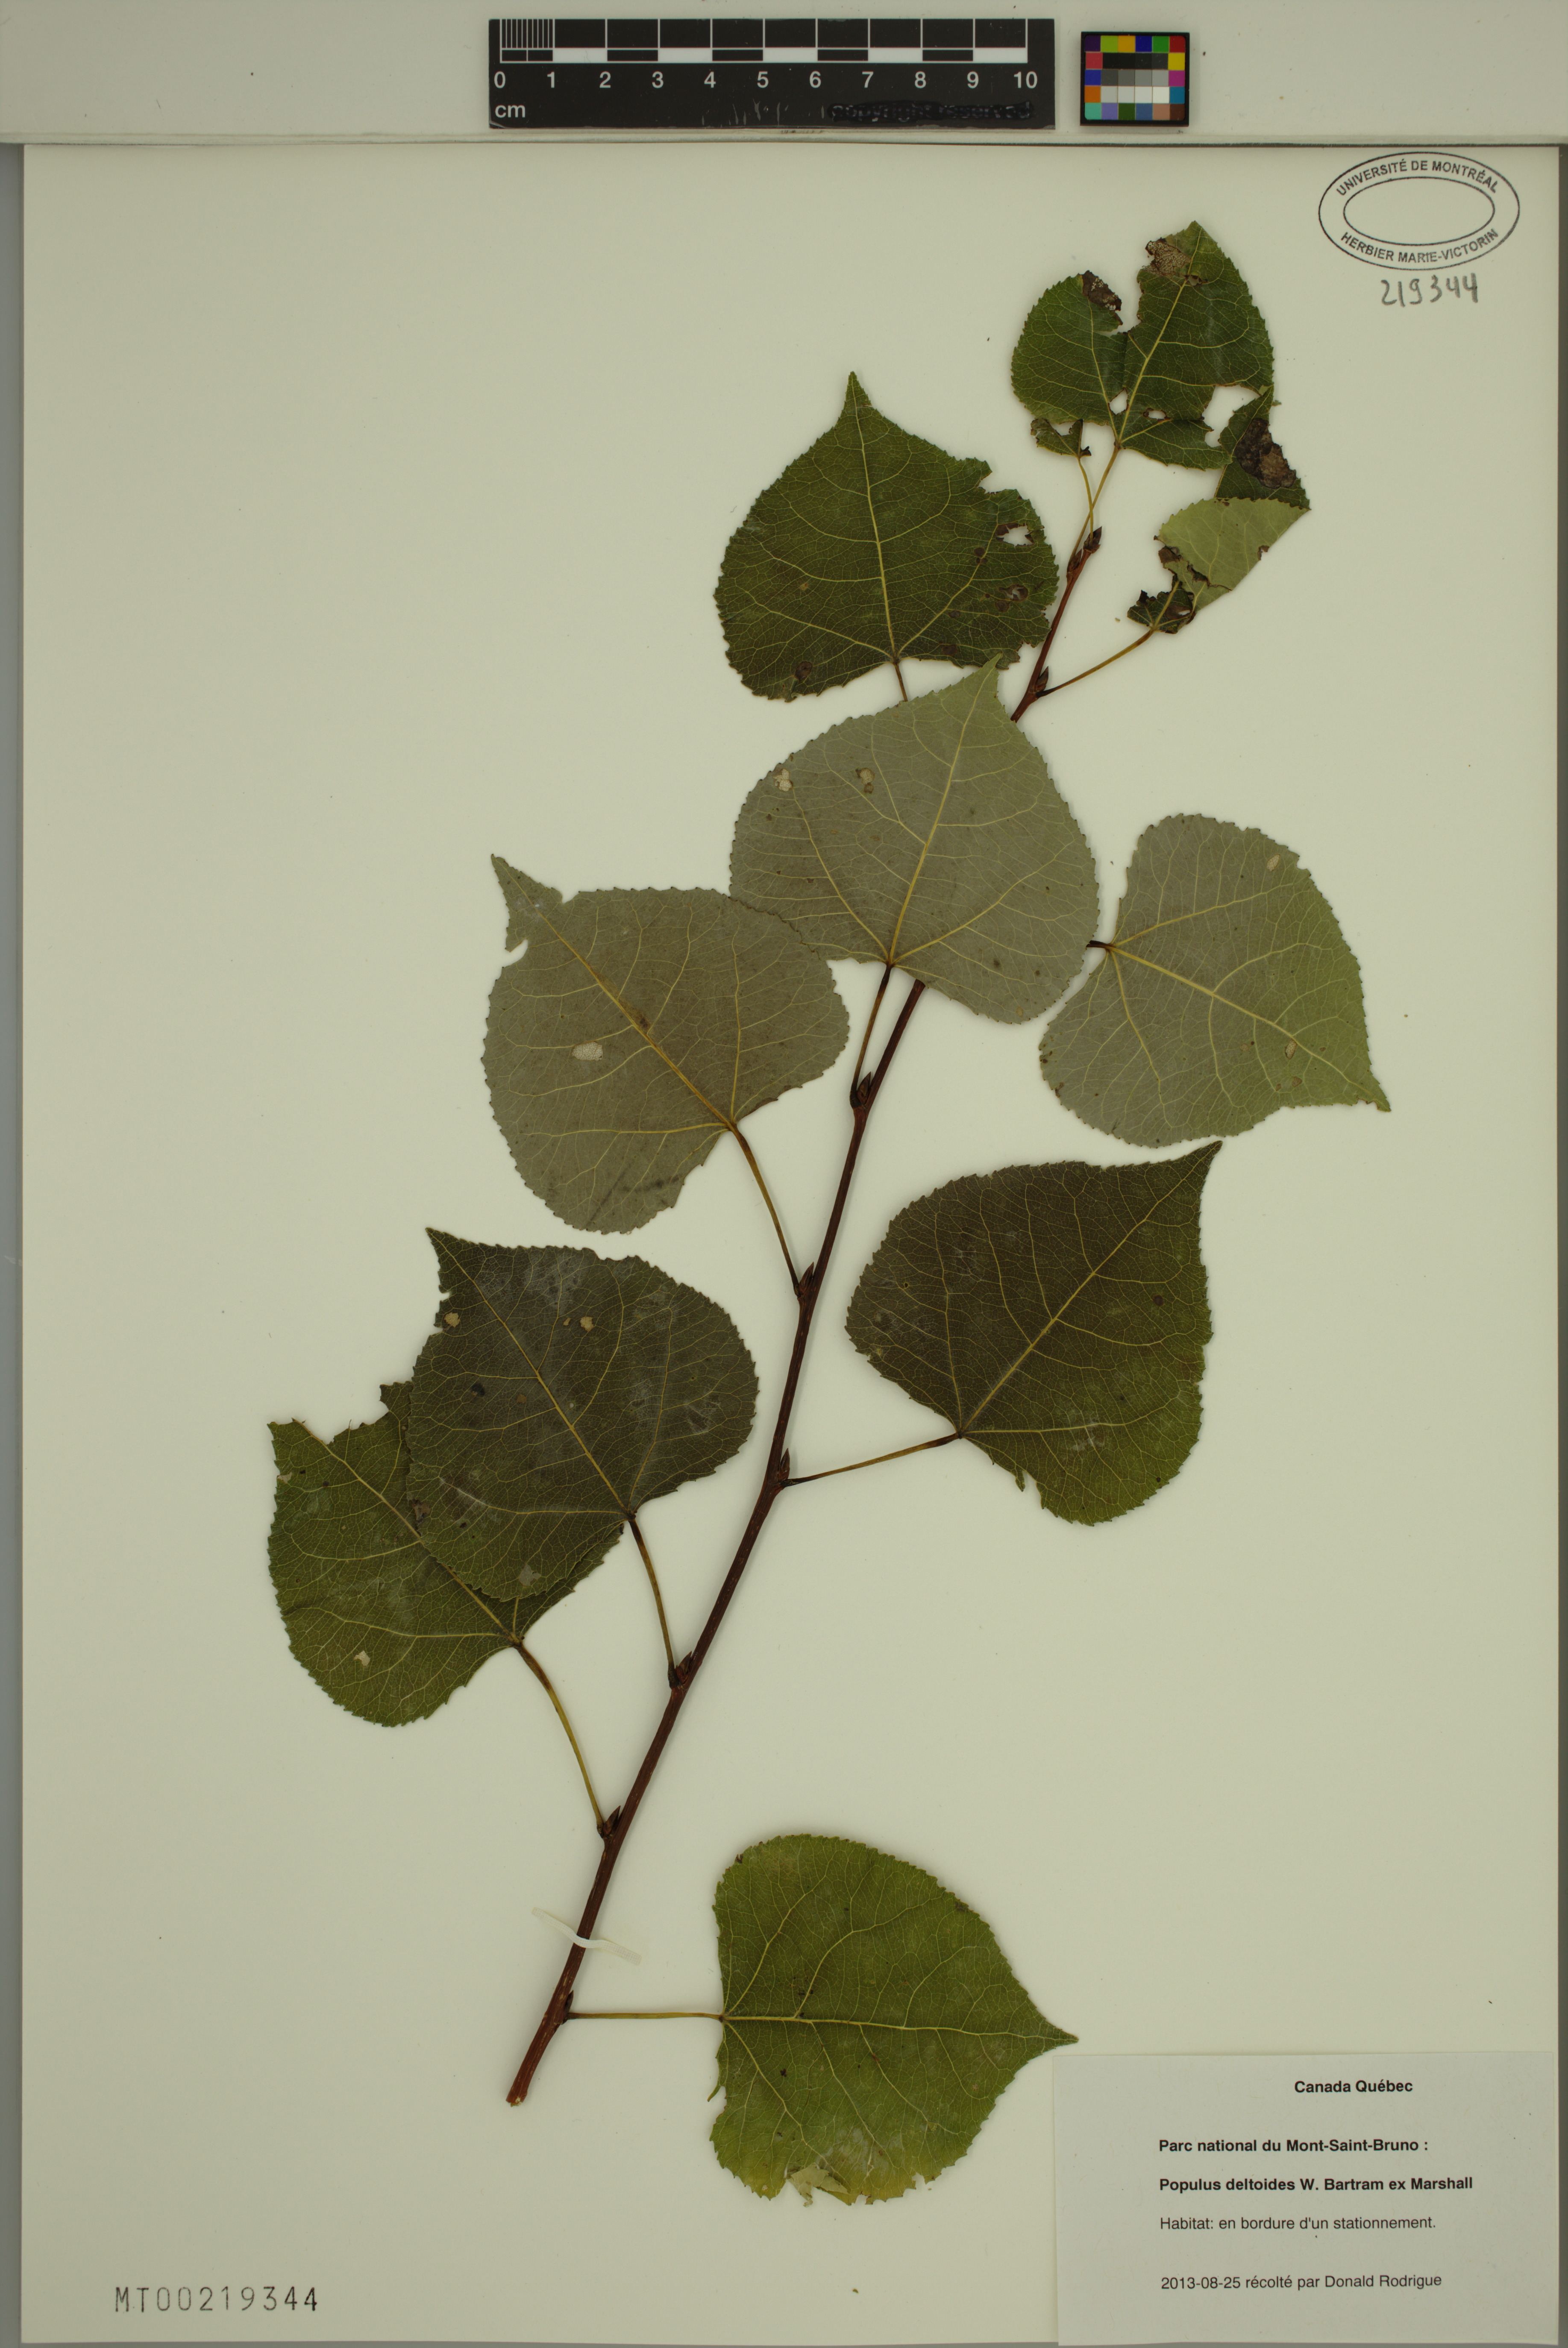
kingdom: Plantae
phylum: Tracheophyta
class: Magnoliopsida
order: Malpighiales
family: Salicaceae
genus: Populus
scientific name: Populus deltoides
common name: Eastern cottonwood
